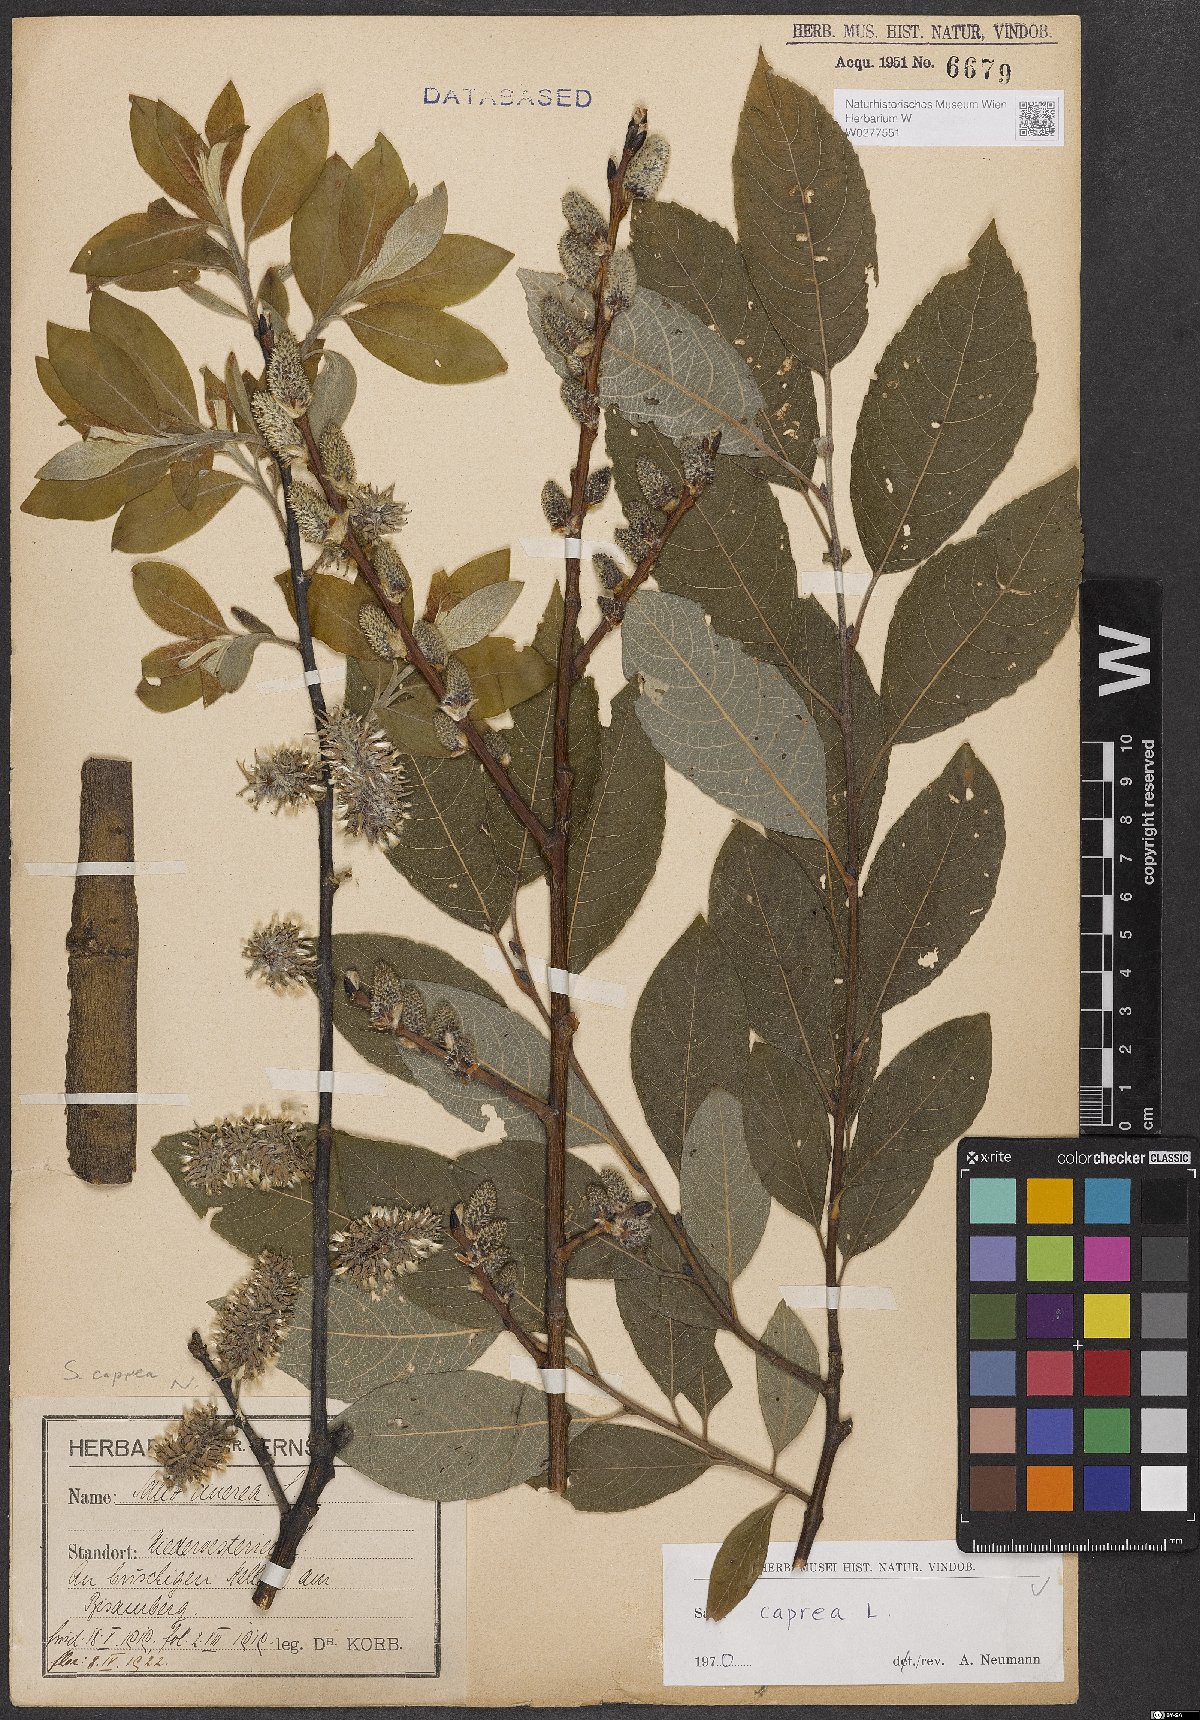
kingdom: Plantae
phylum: Tracheophyta
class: Magnoliopsida
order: Malpighiales
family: Salicaceae
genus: Salix
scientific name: Salix caprea
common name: Goat willow
